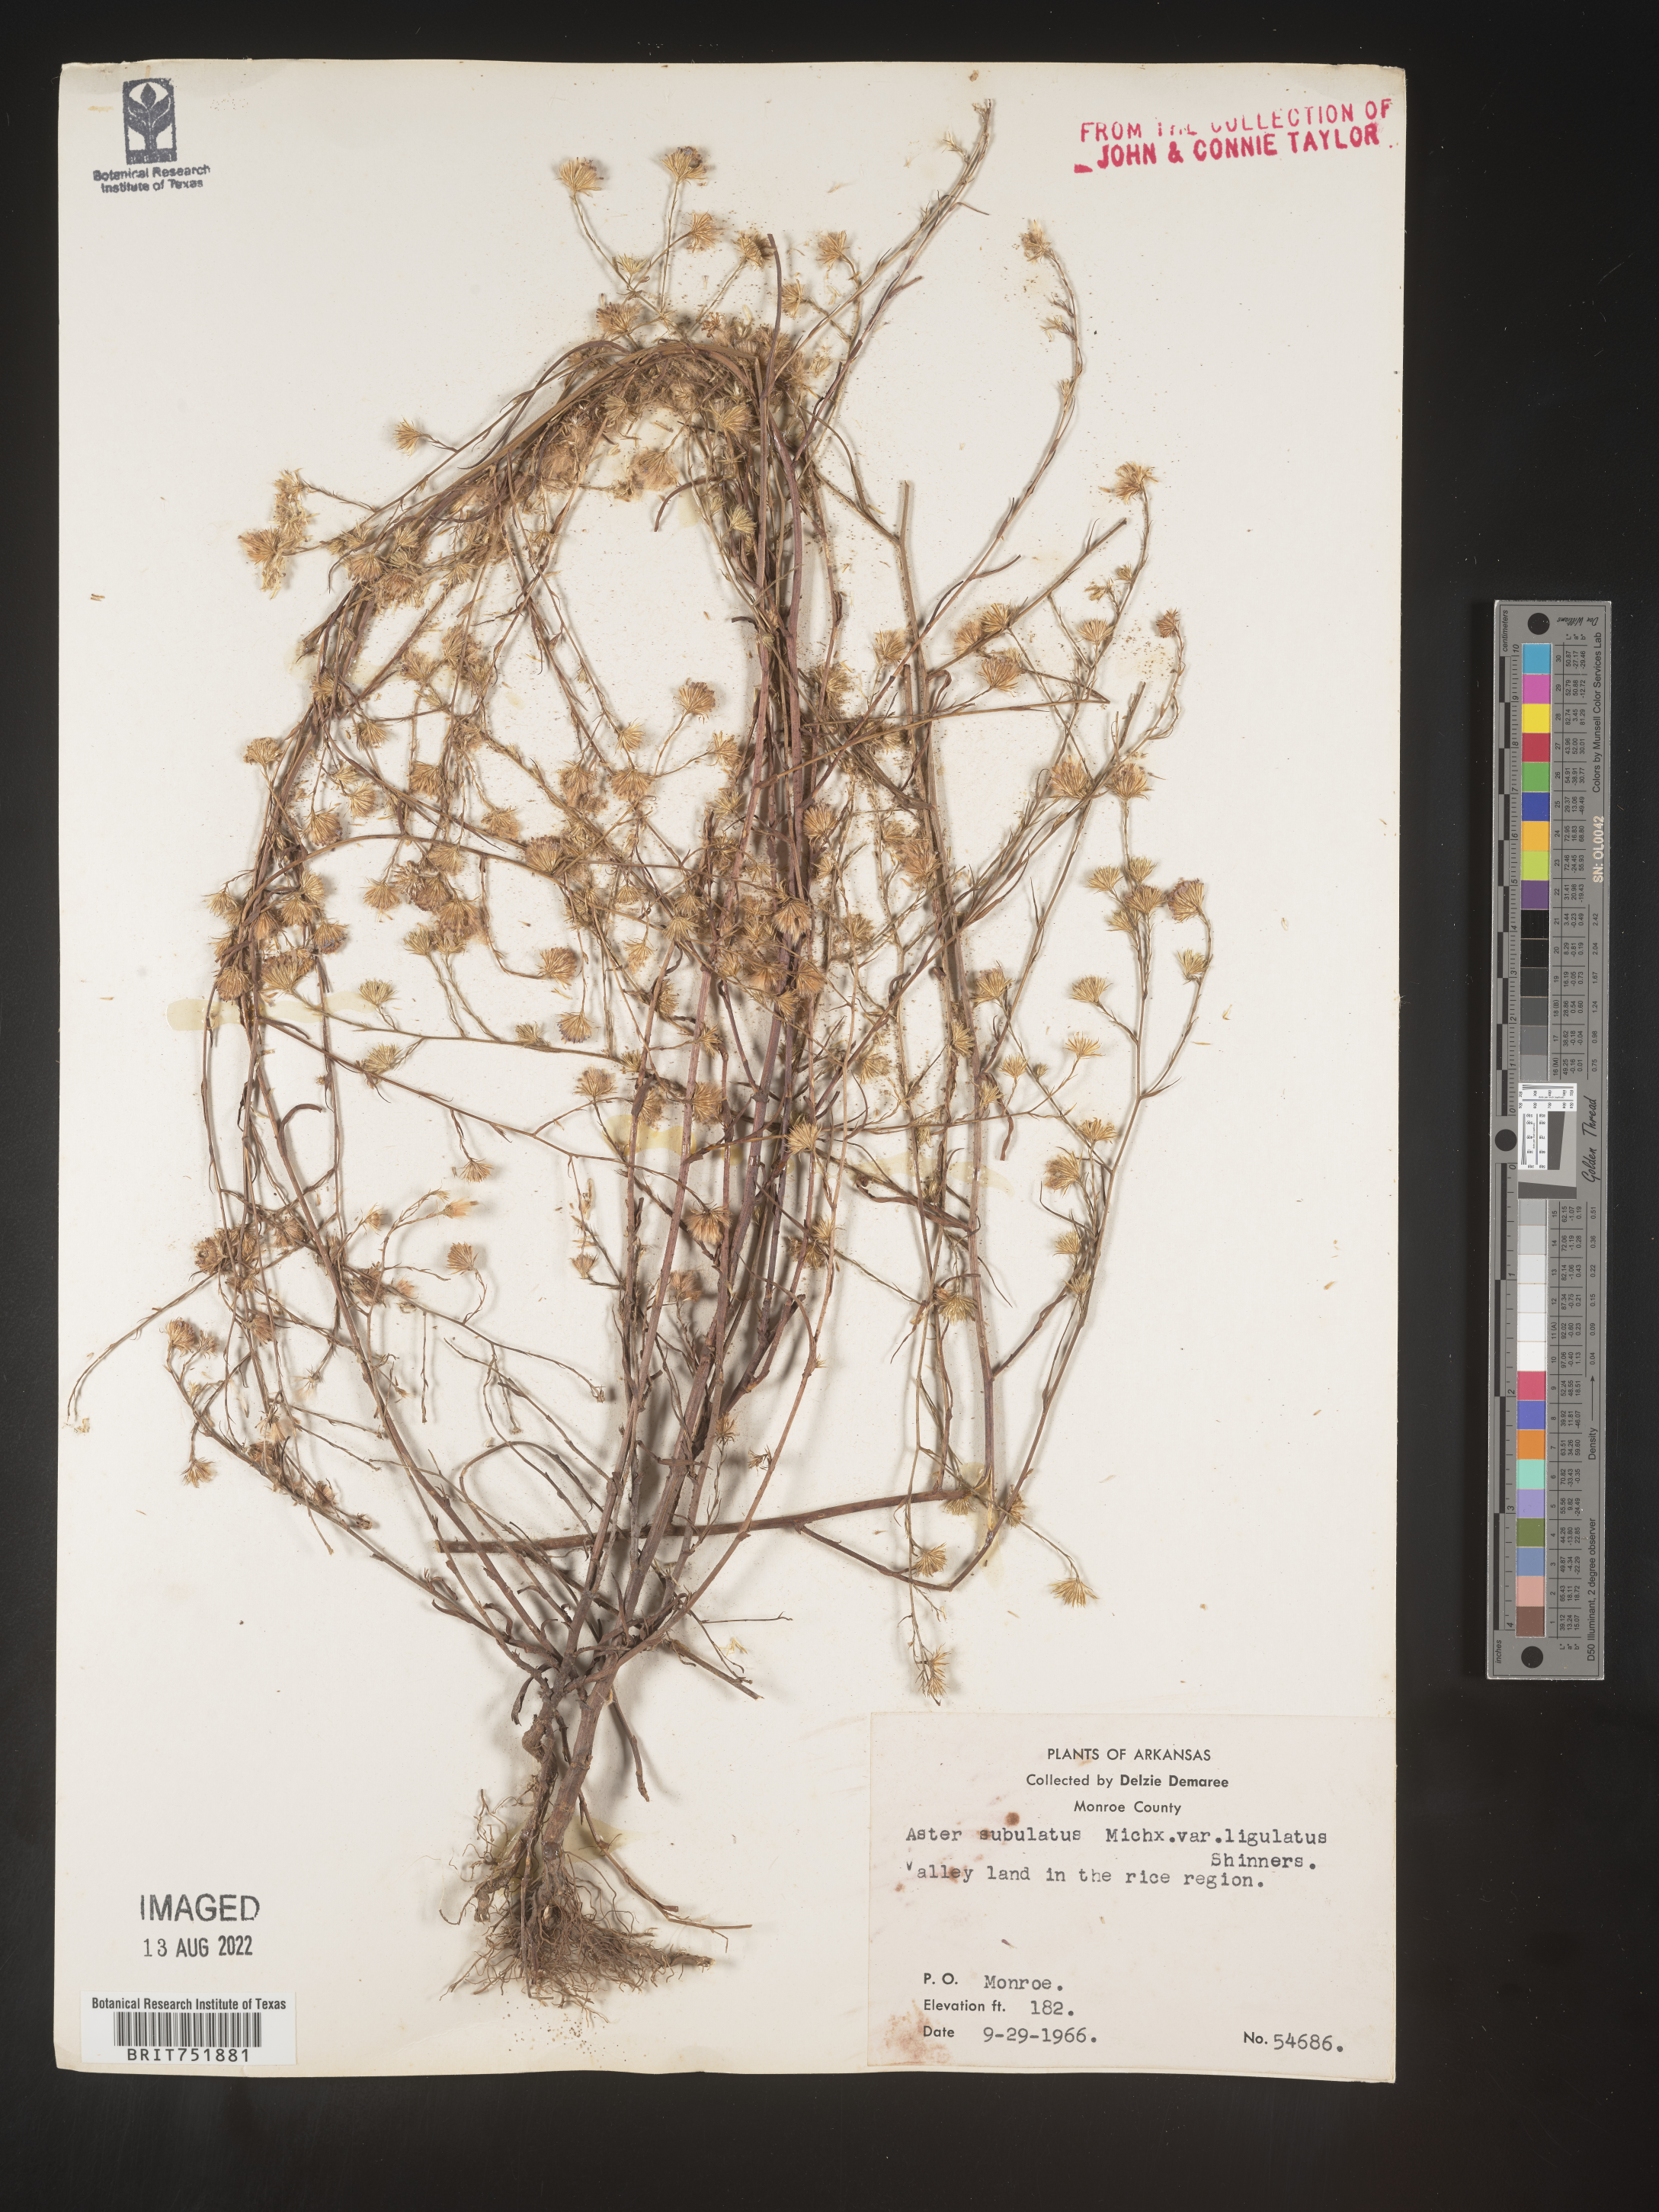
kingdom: Plantae
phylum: Tracheophyta
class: Magnoliopsida
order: Asterales
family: Asteraceae
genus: Symphyotrichum
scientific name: Symphyotrichum divaricatum
